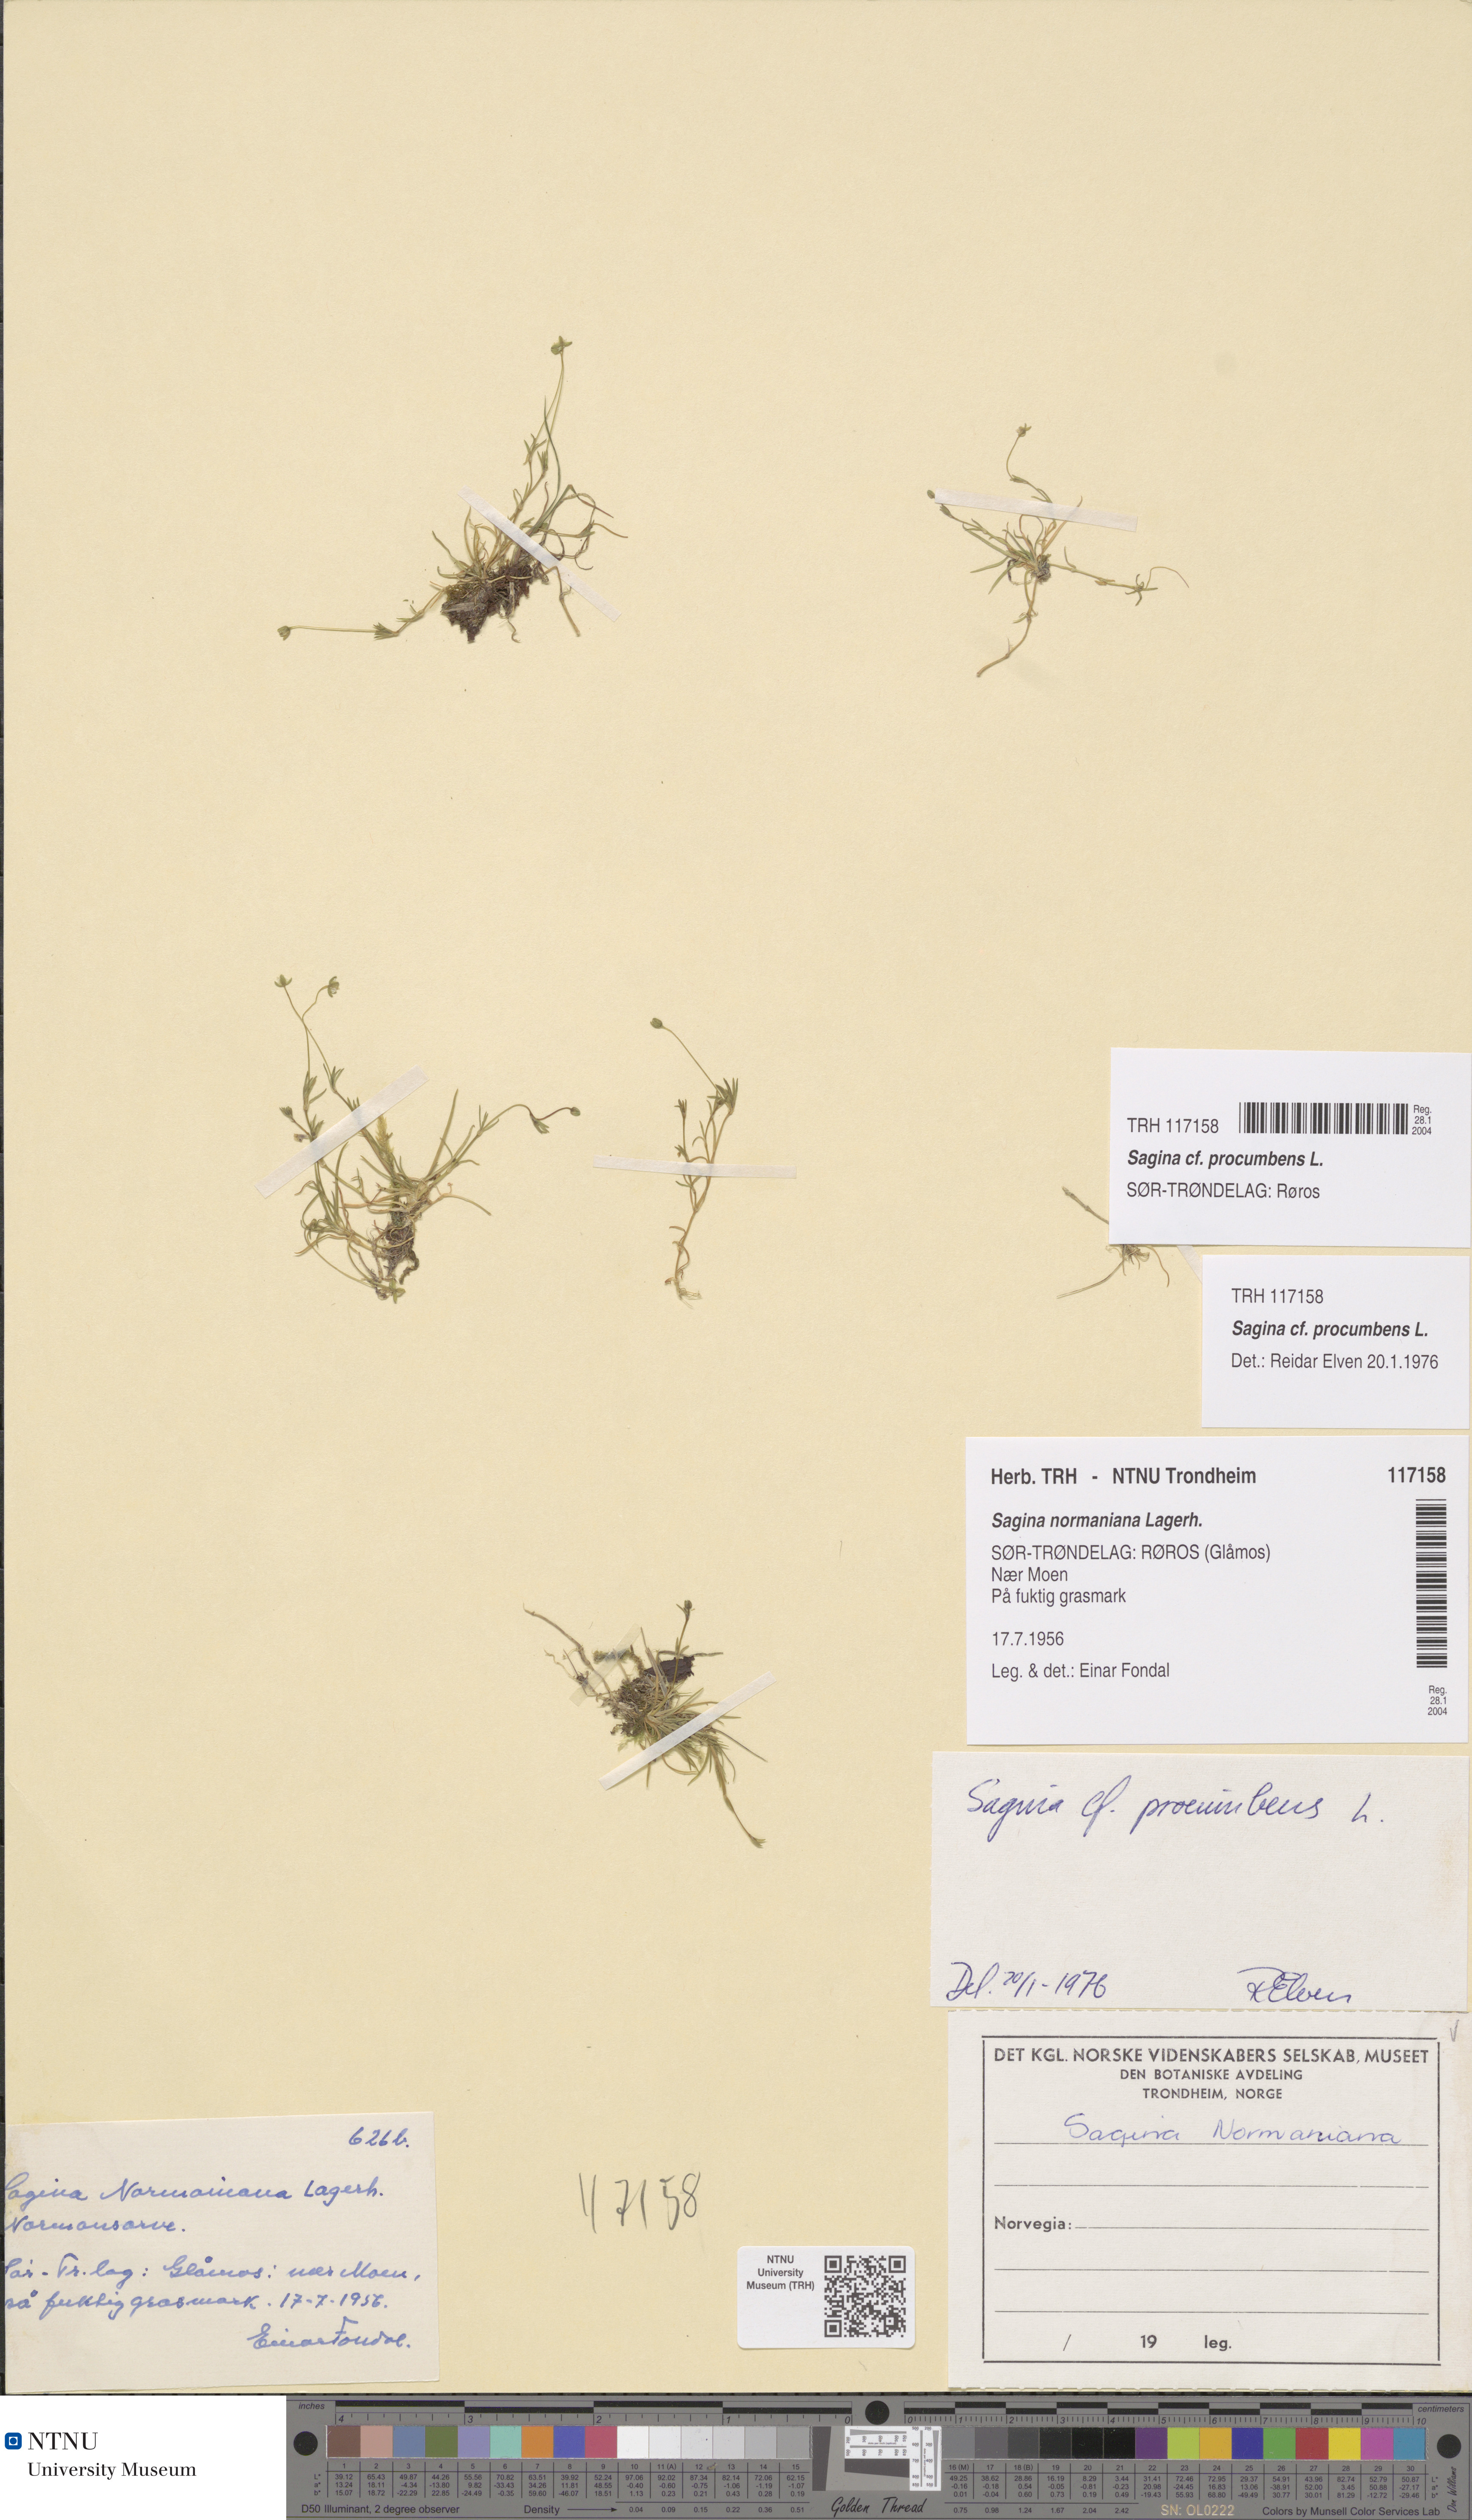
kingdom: Plantae
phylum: Tracheophyta
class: Magnoliopsida
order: Caryophyllales
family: Caryophyllaceae
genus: Sagina
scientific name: Sagina procumbens
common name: Procumbent pearlwort
